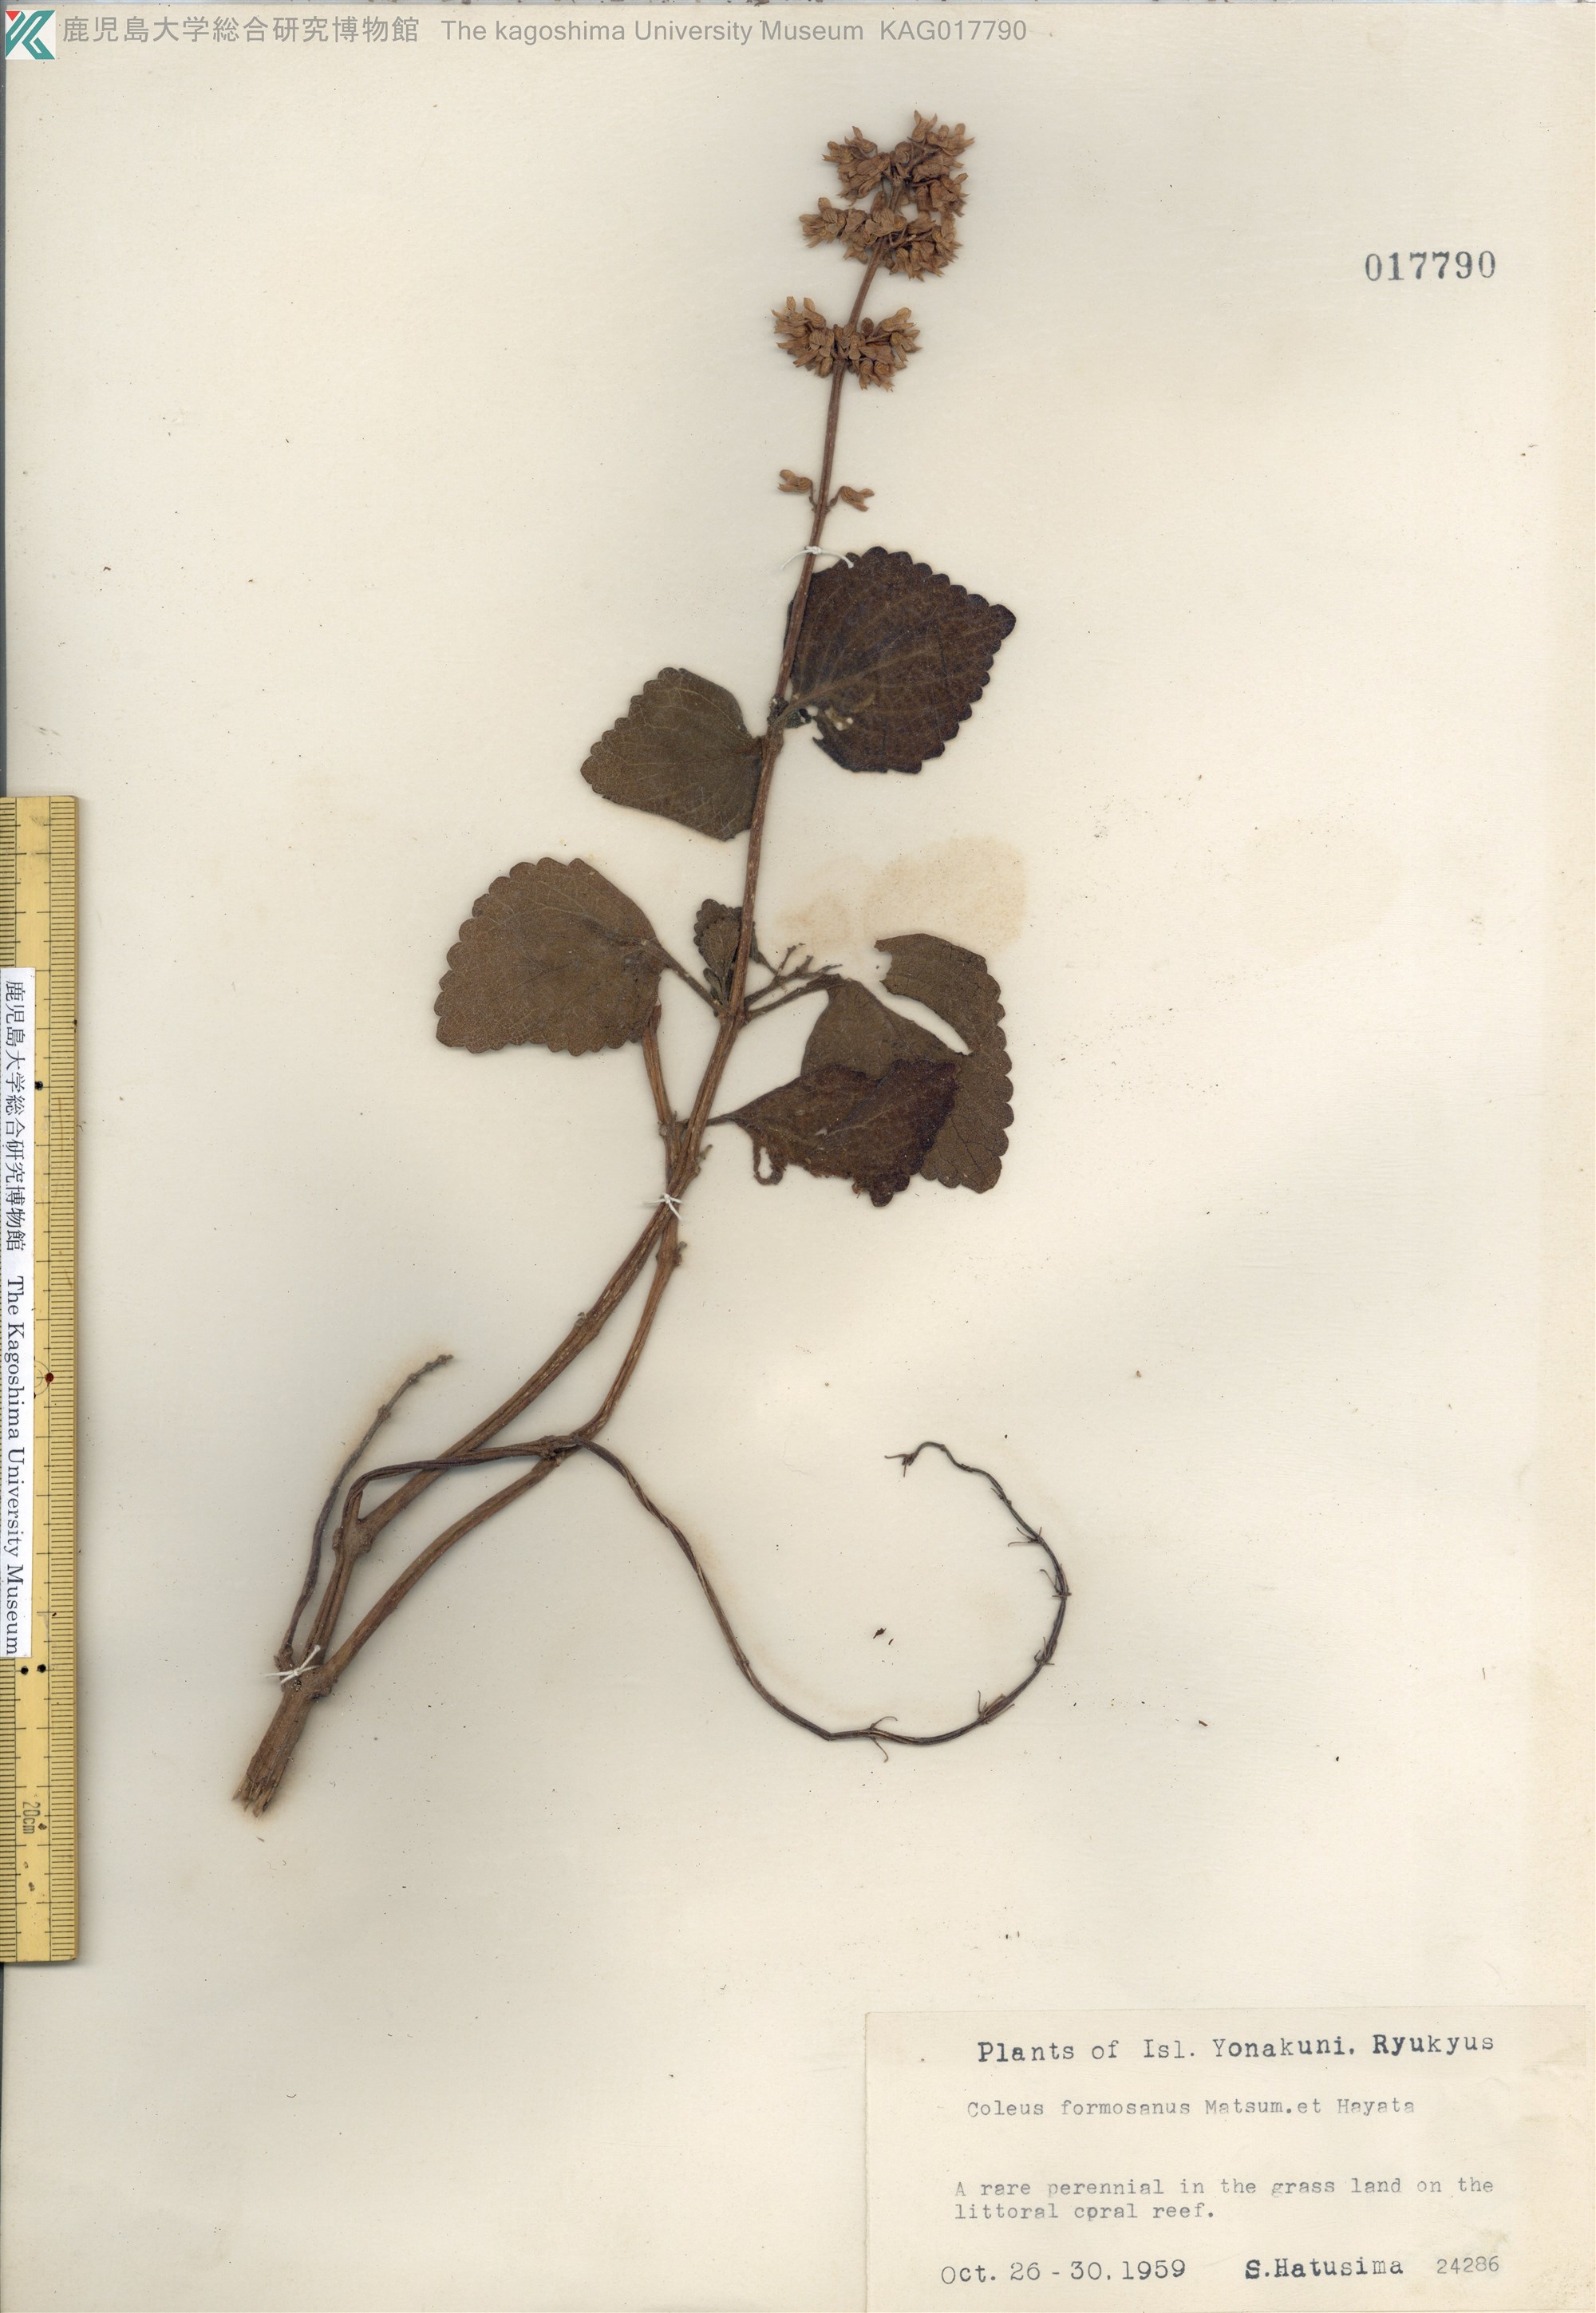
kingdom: Plantae
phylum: Tracheophyta
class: Magnoliopsida
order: Lamiales
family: Lamiaceae
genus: Coleus
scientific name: Coleus scutellarioides
